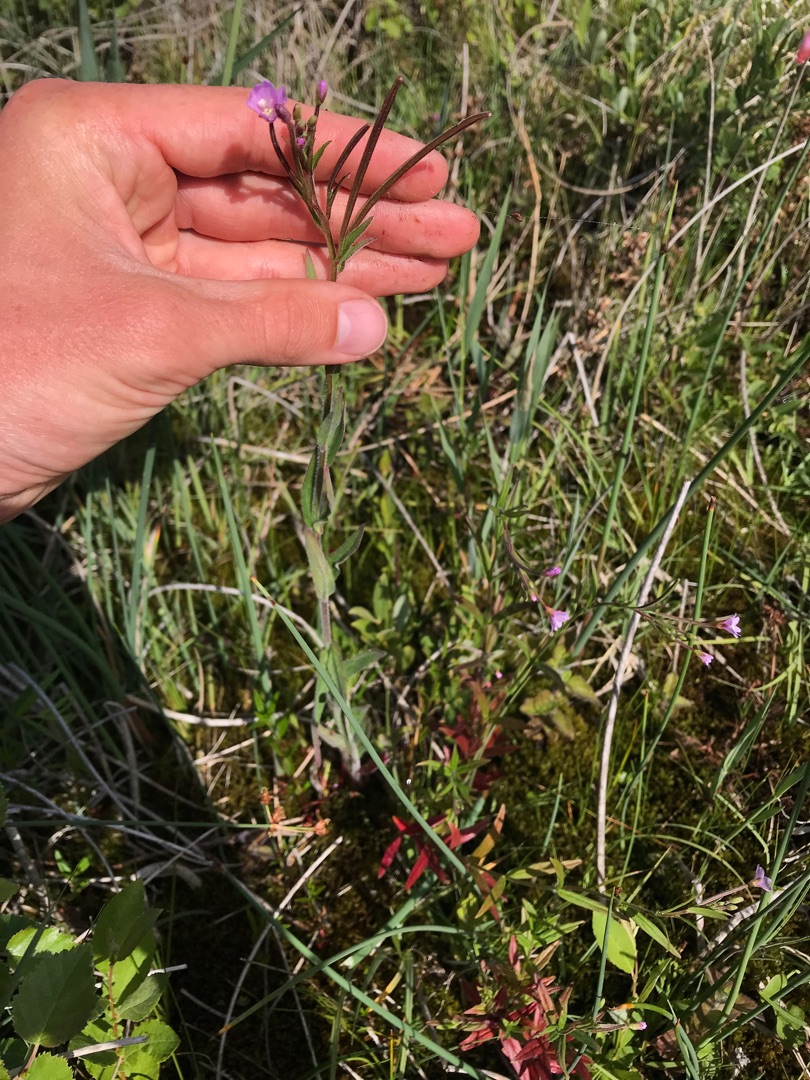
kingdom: Plantae
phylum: Tracheophyta
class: Magnoliopsida
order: Myrtales
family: Onagraceae
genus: Epilobium
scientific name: Epilobium parviflorum
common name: Dunet dueurt
